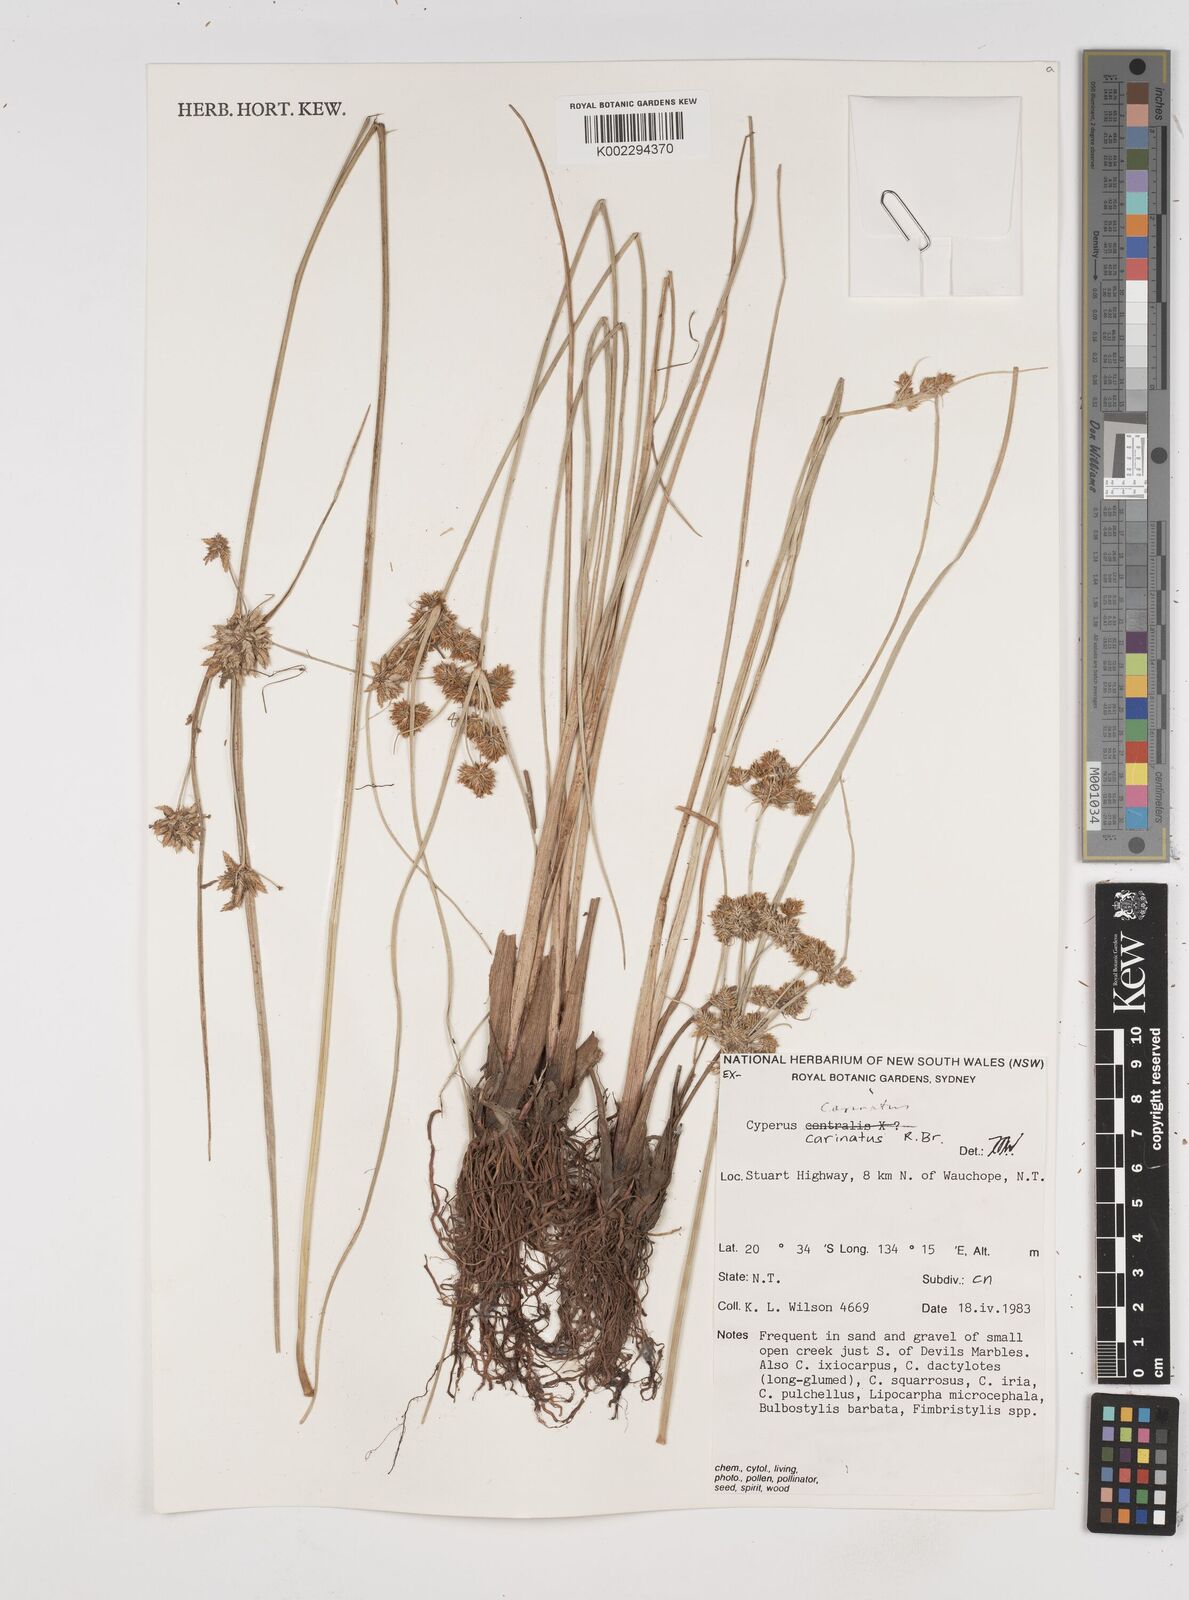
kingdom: Plantae
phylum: Tracheophyta
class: Liliopsida
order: Poales
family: Cyperaceae
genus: Cyperus
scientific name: Cyperus carinatus
